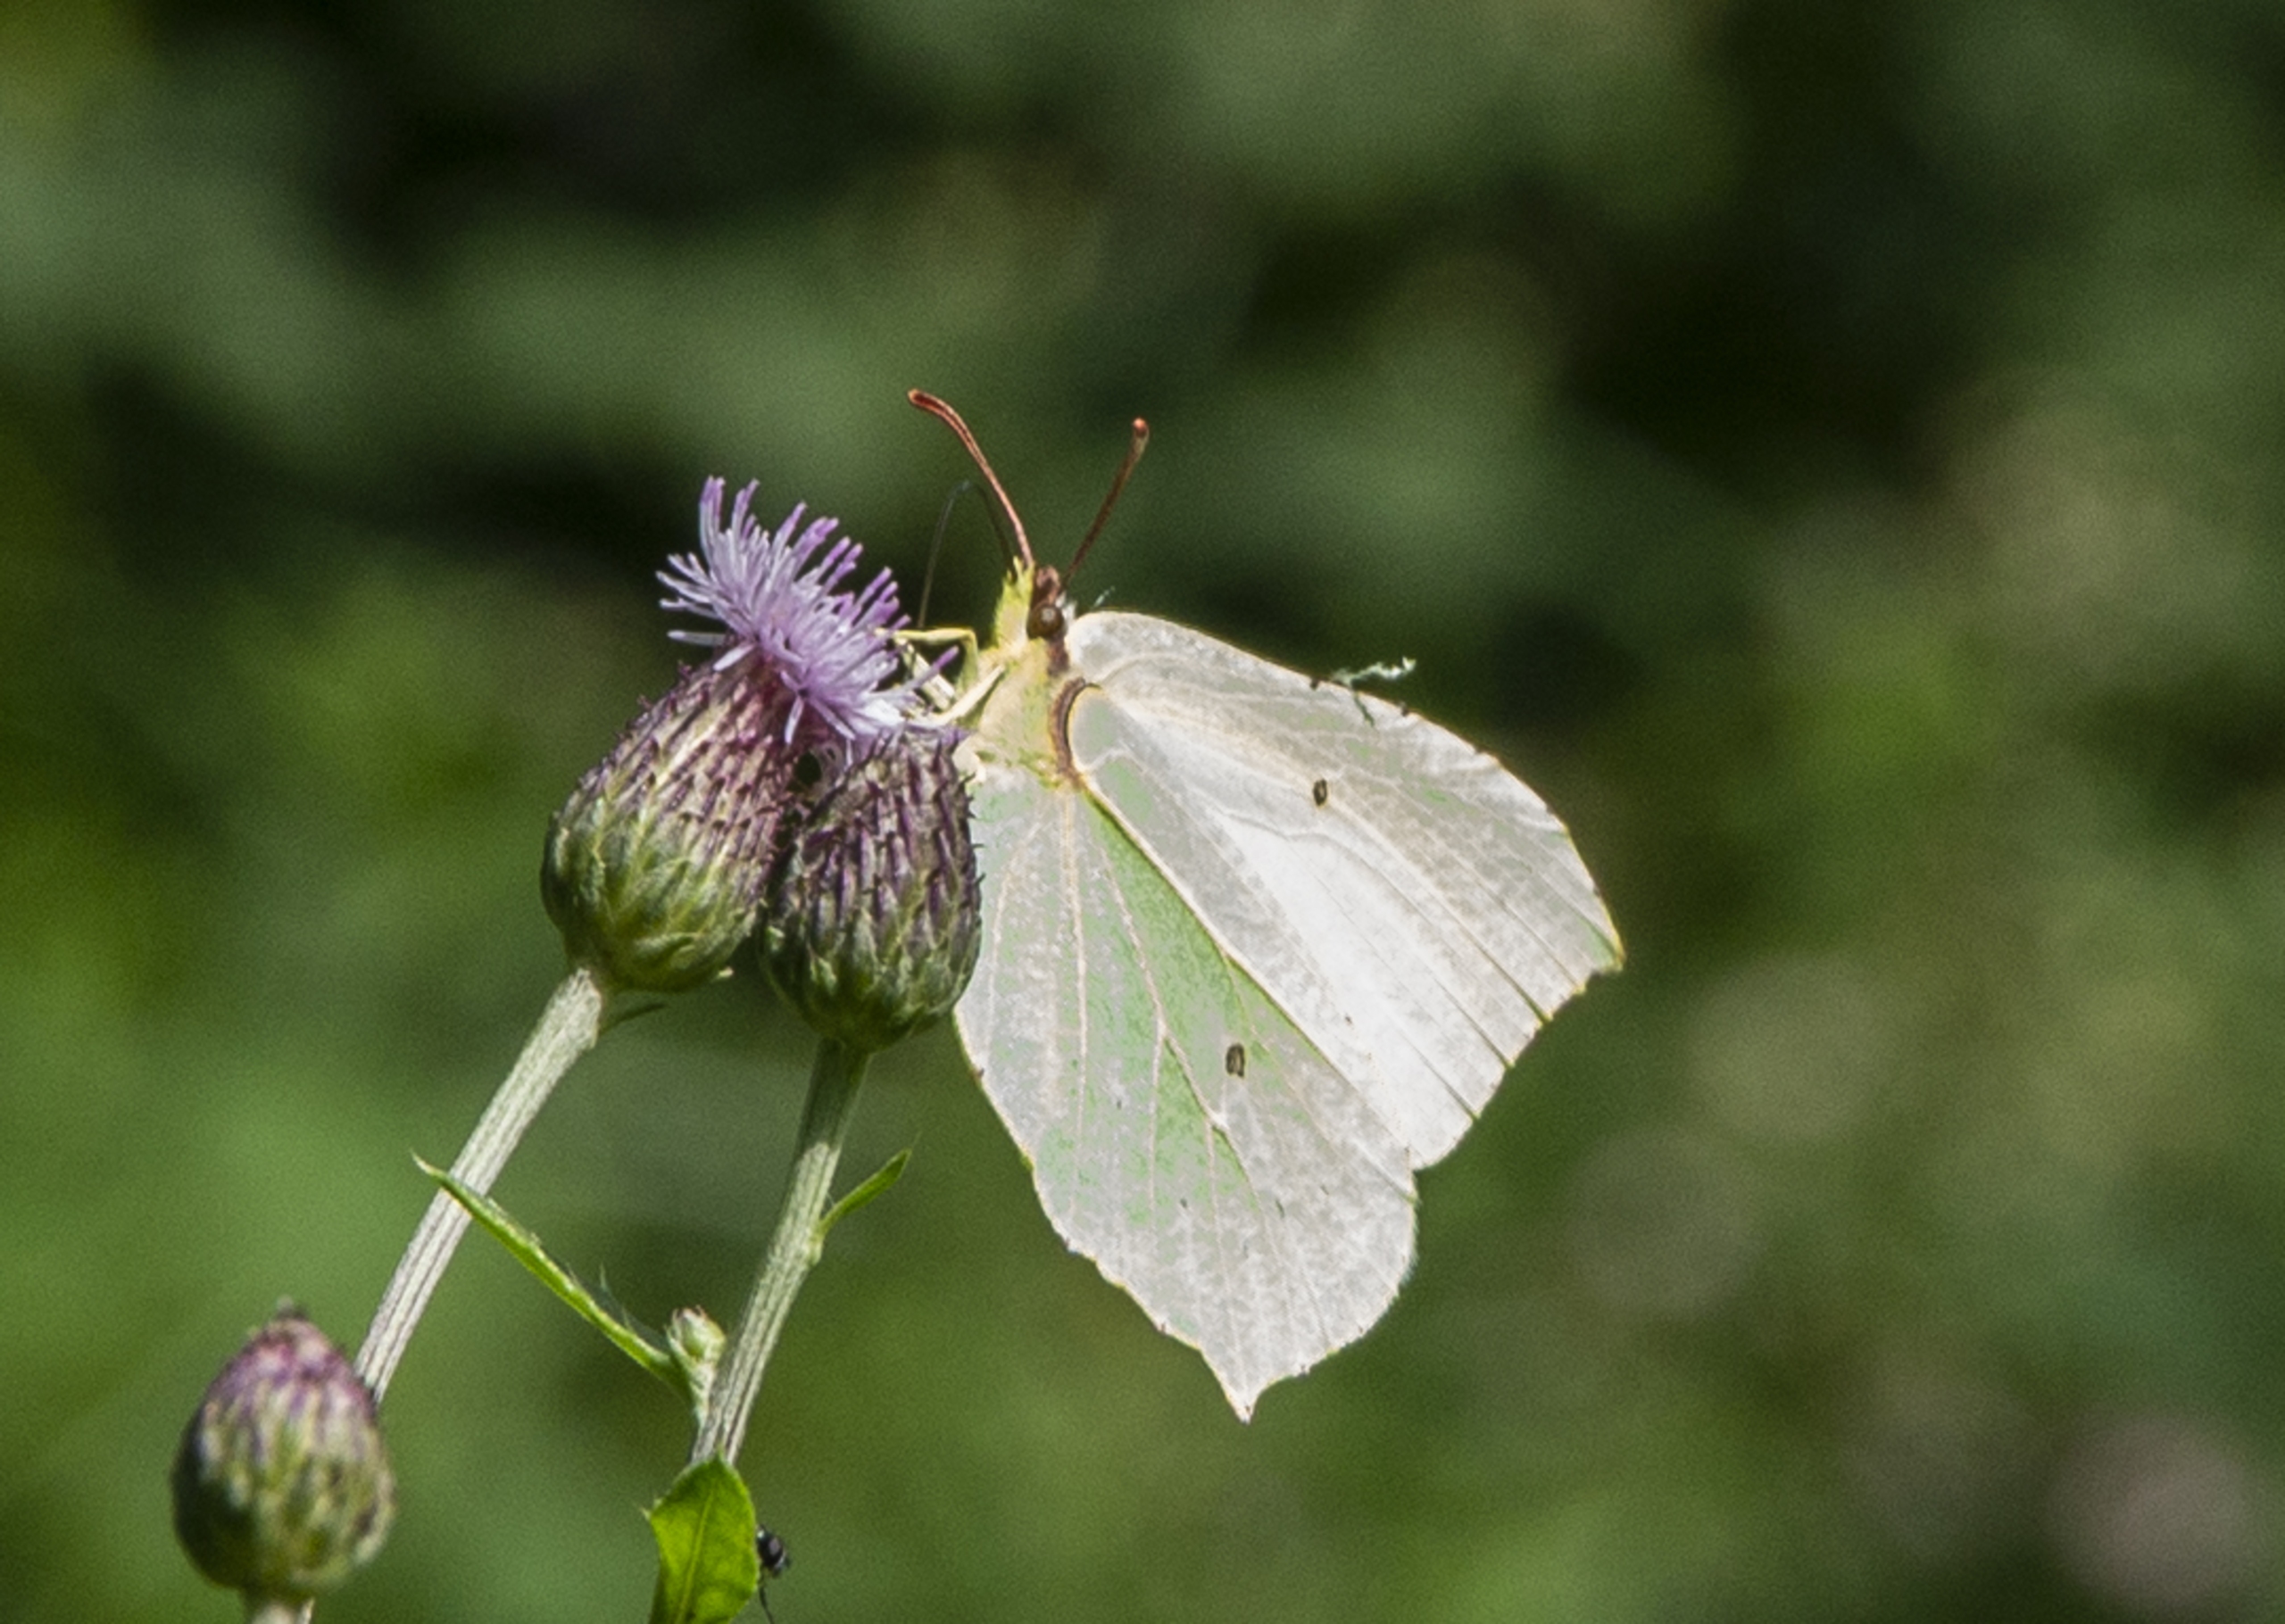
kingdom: Animalia
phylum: Arthropoda
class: Insecta
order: Lepidoptera
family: Pieridae
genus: Gonepteryx
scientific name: Gonepteryx rhamni
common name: Citronsommerfugl
